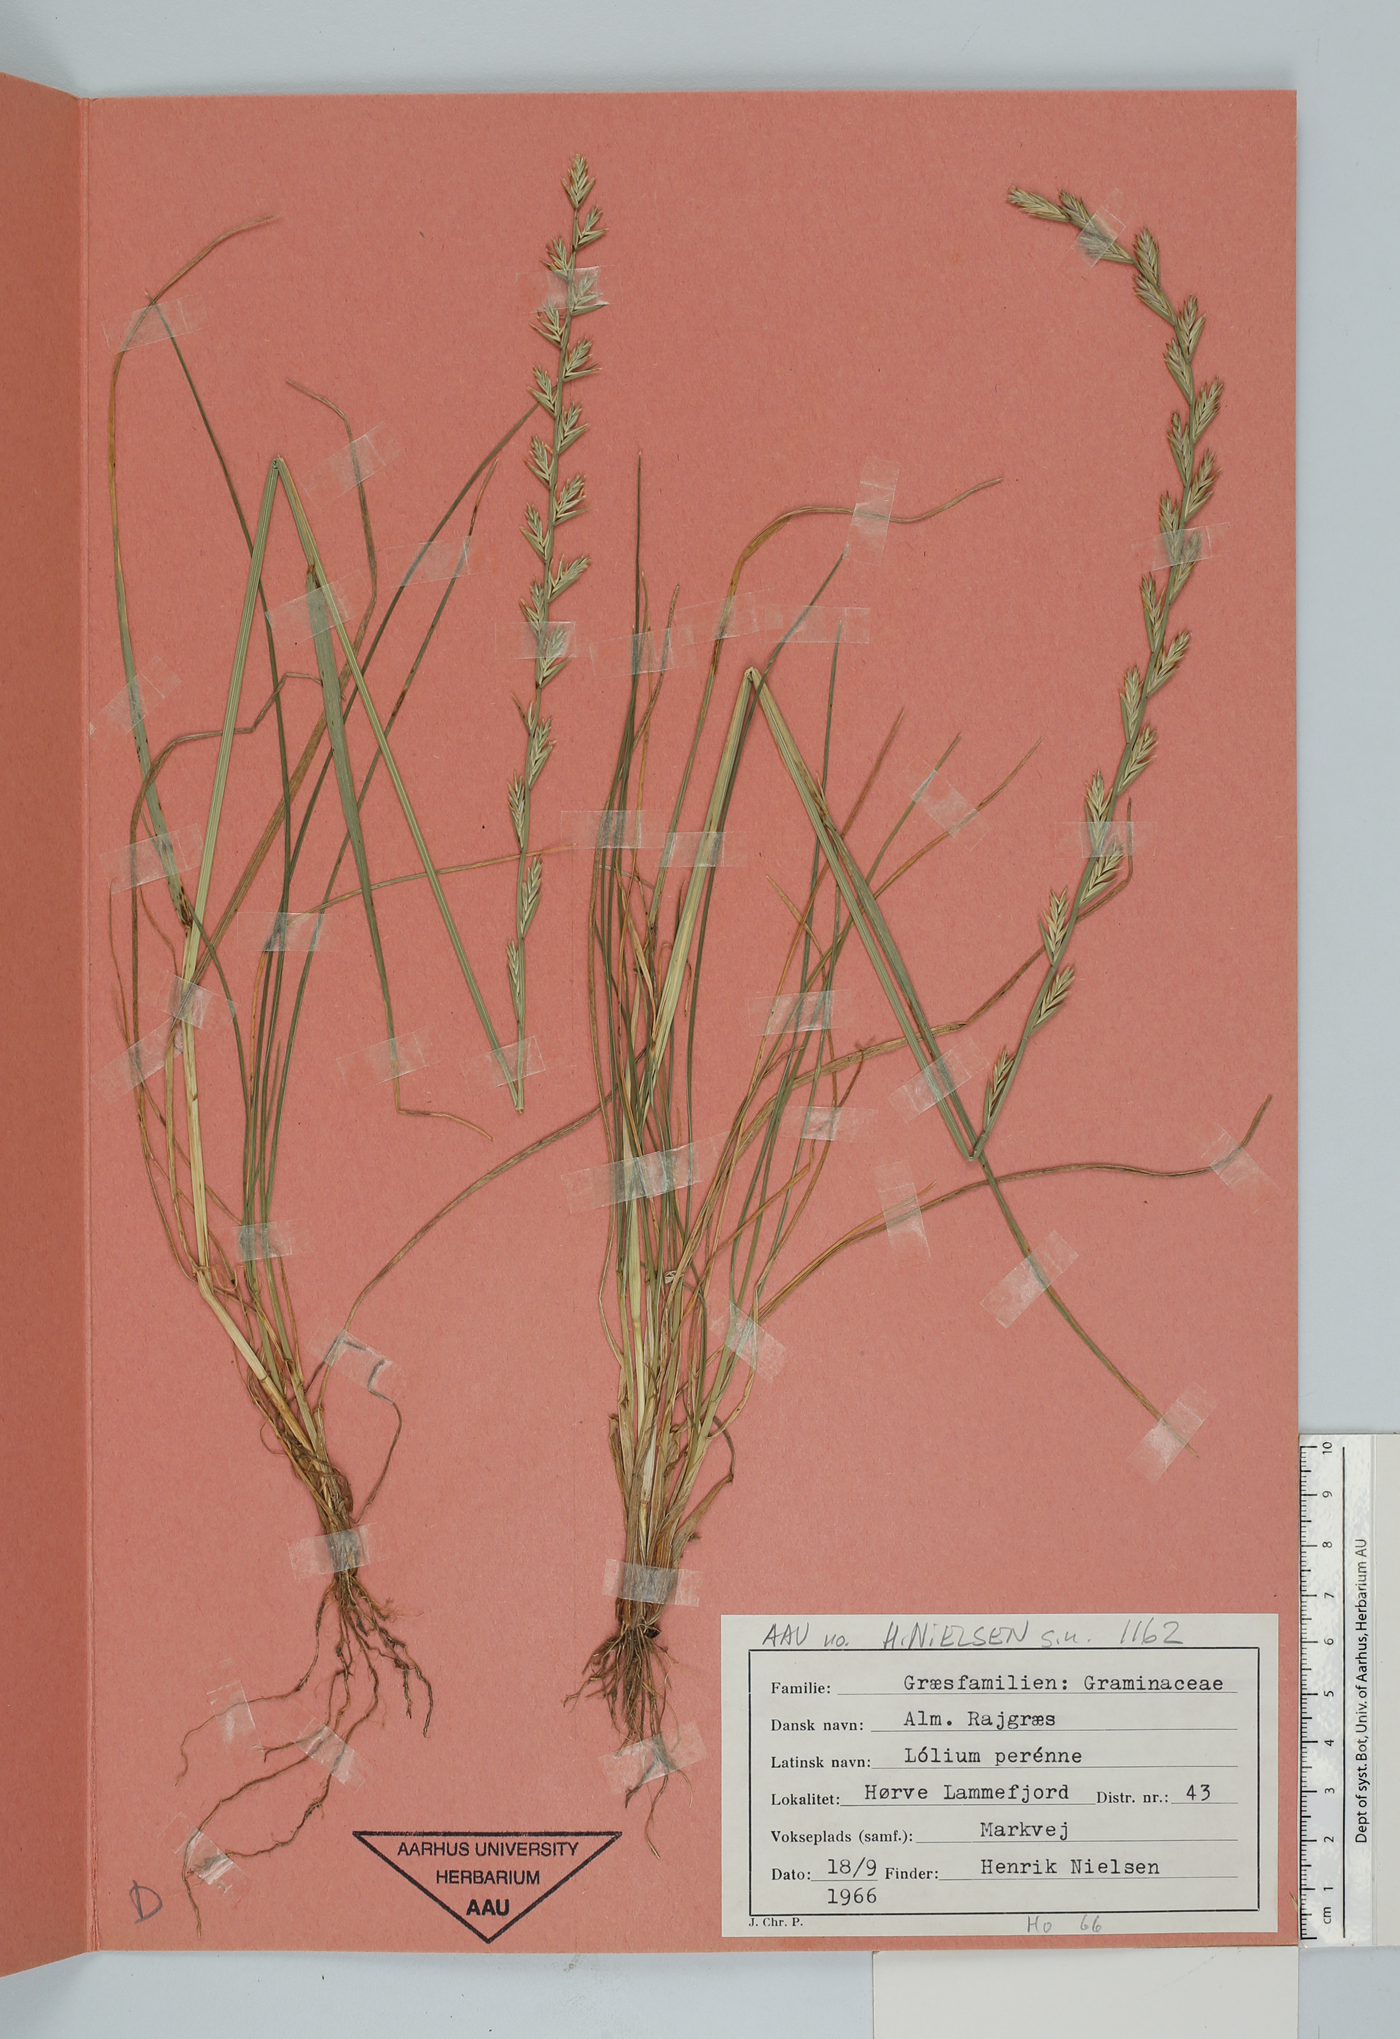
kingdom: Plantae
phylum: Tracheophyta
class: Liliopsida
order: Poales
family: Poaceae
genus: Lolium
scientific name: Lolium perenne
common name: Perennial ryegrass
